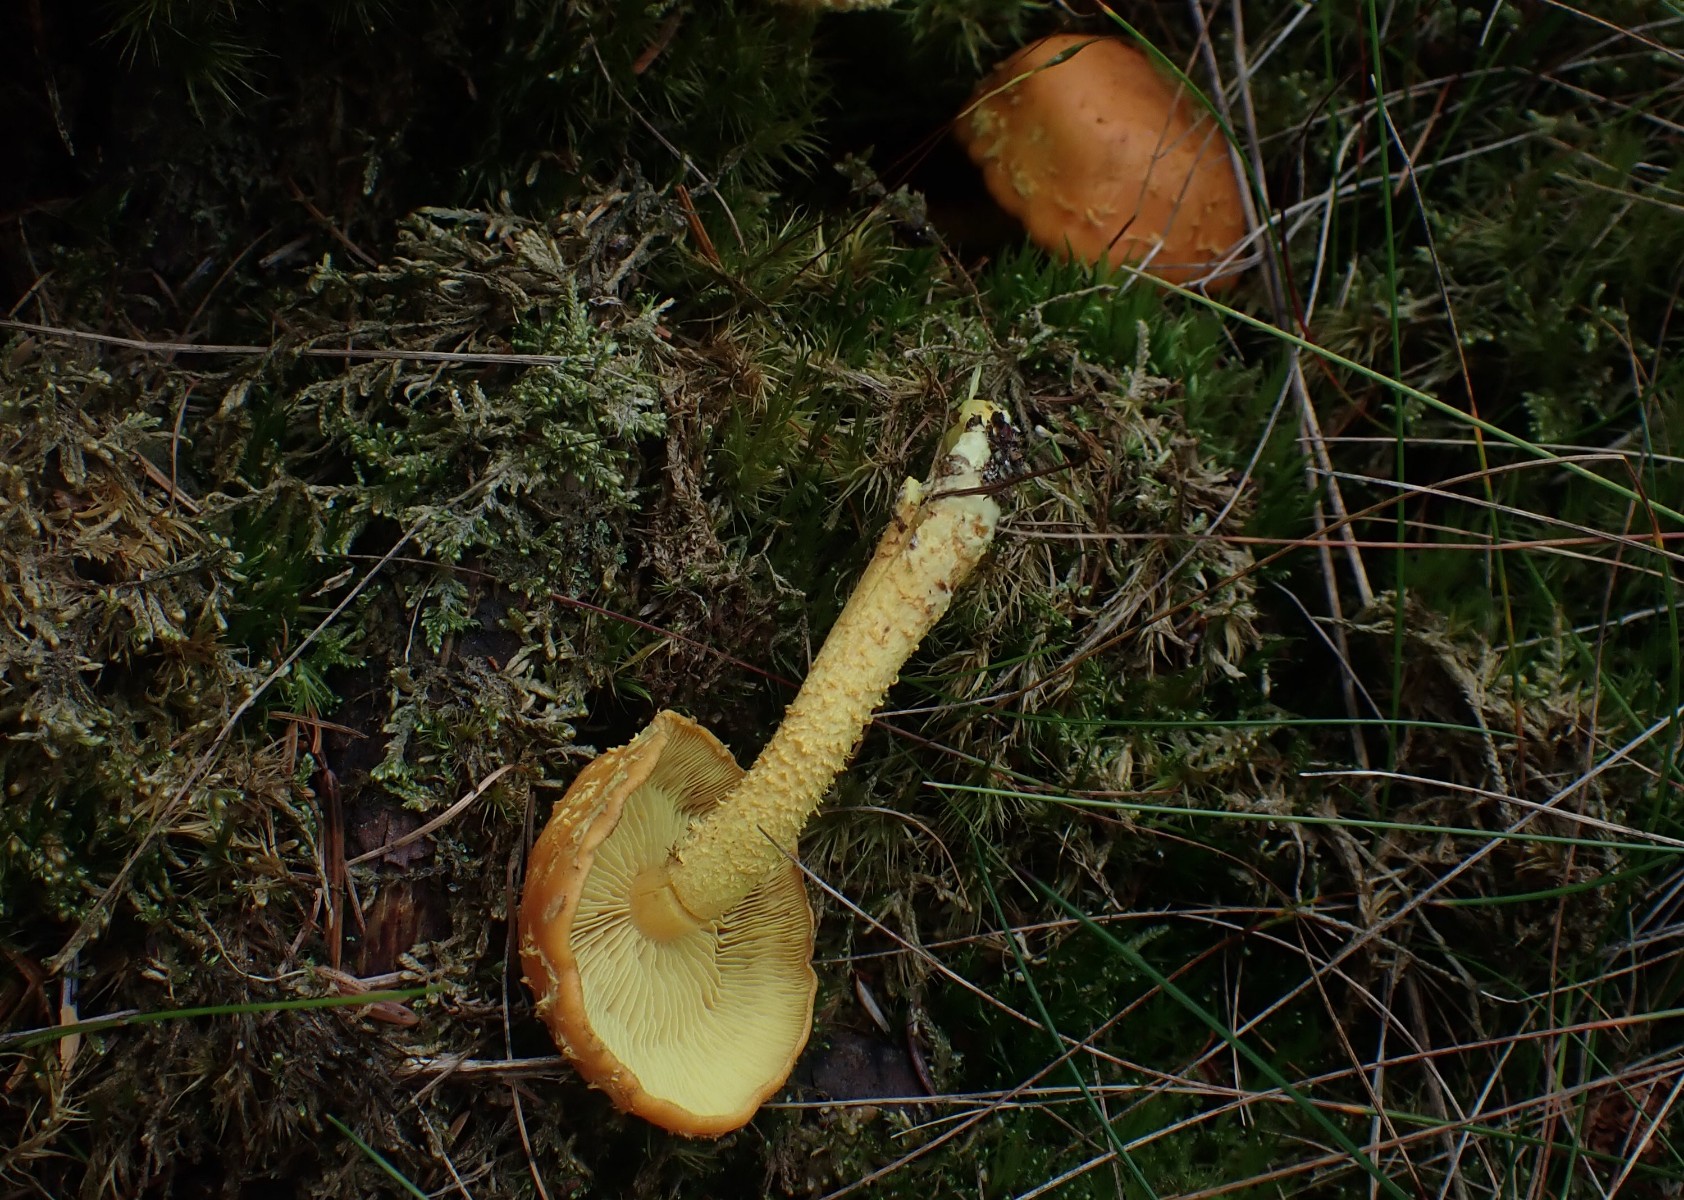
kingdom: Fungi
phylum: Basidiomycota
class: Agaricomycetes
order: Agaricales
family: Strophariaceae
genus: Pholiota
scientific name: Pholiota flammans
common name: flamme-skælhat
